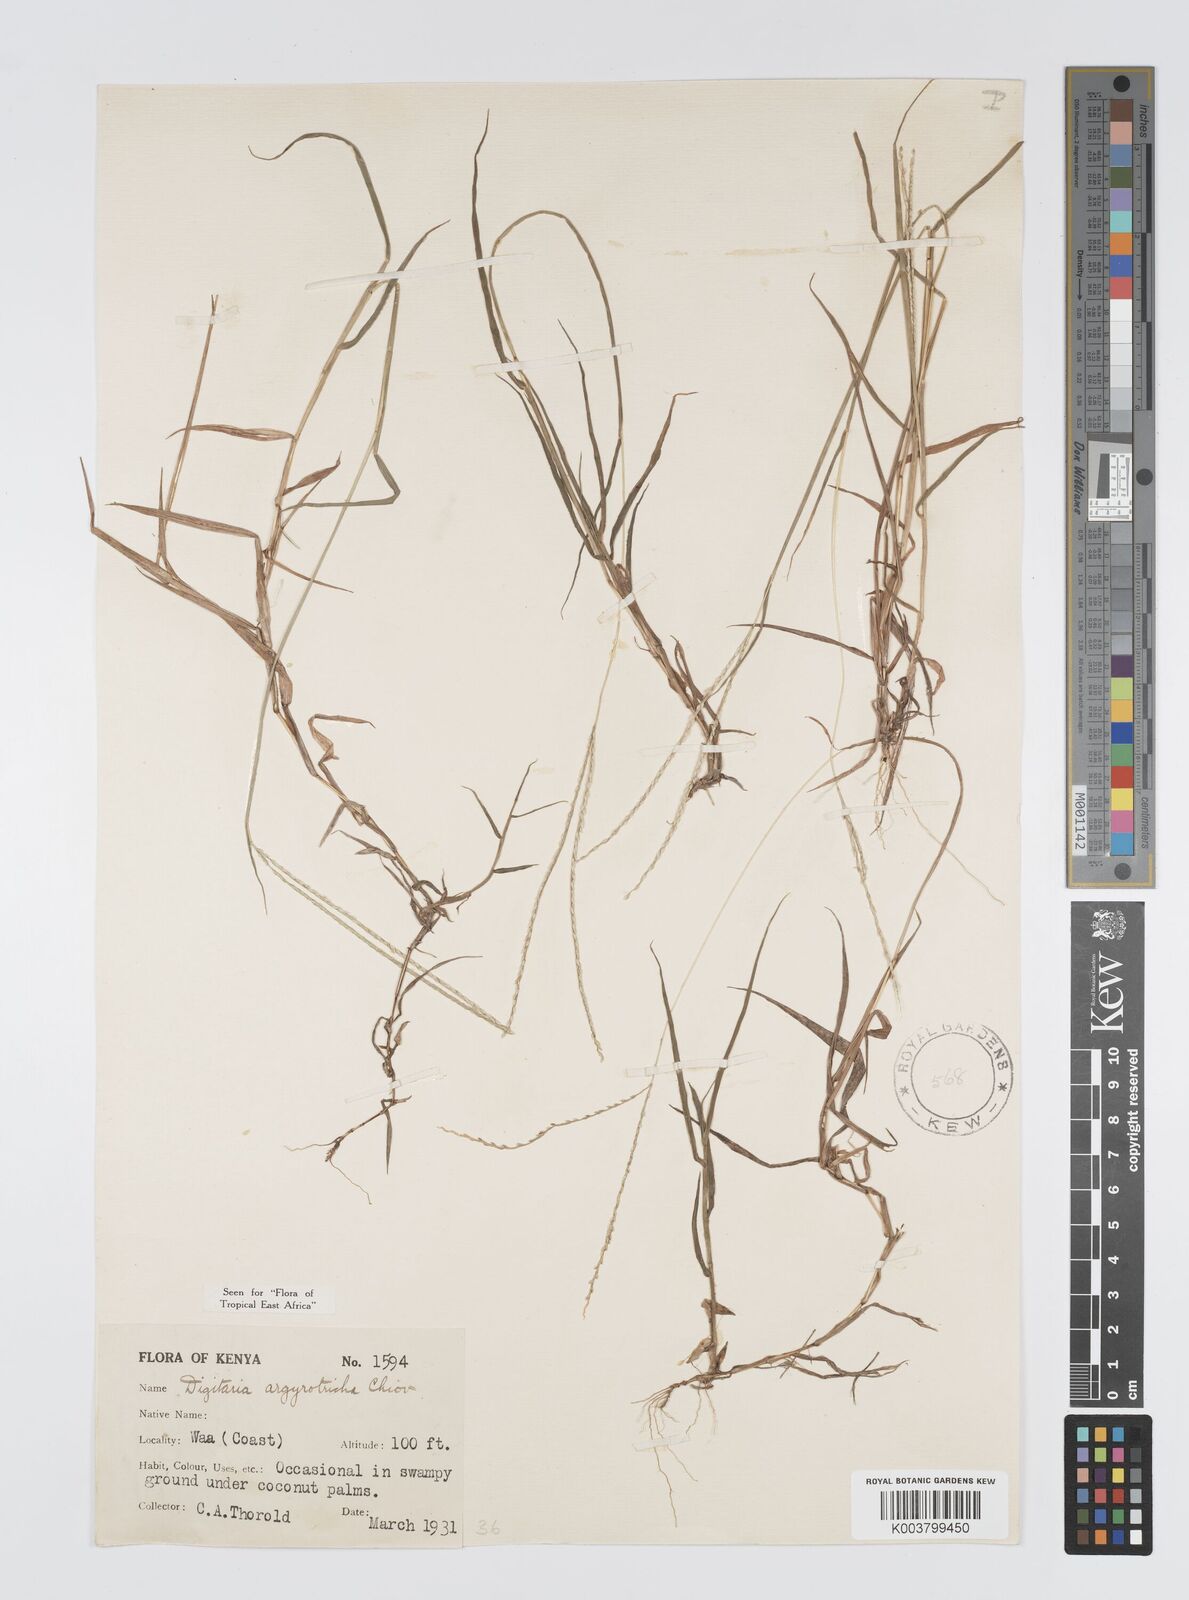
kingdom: Plantae
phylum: Tracheophyta
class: Liliopsida
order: Poales
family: Poaceae
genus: Digitaria
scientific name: Digitaria argyrotricha
